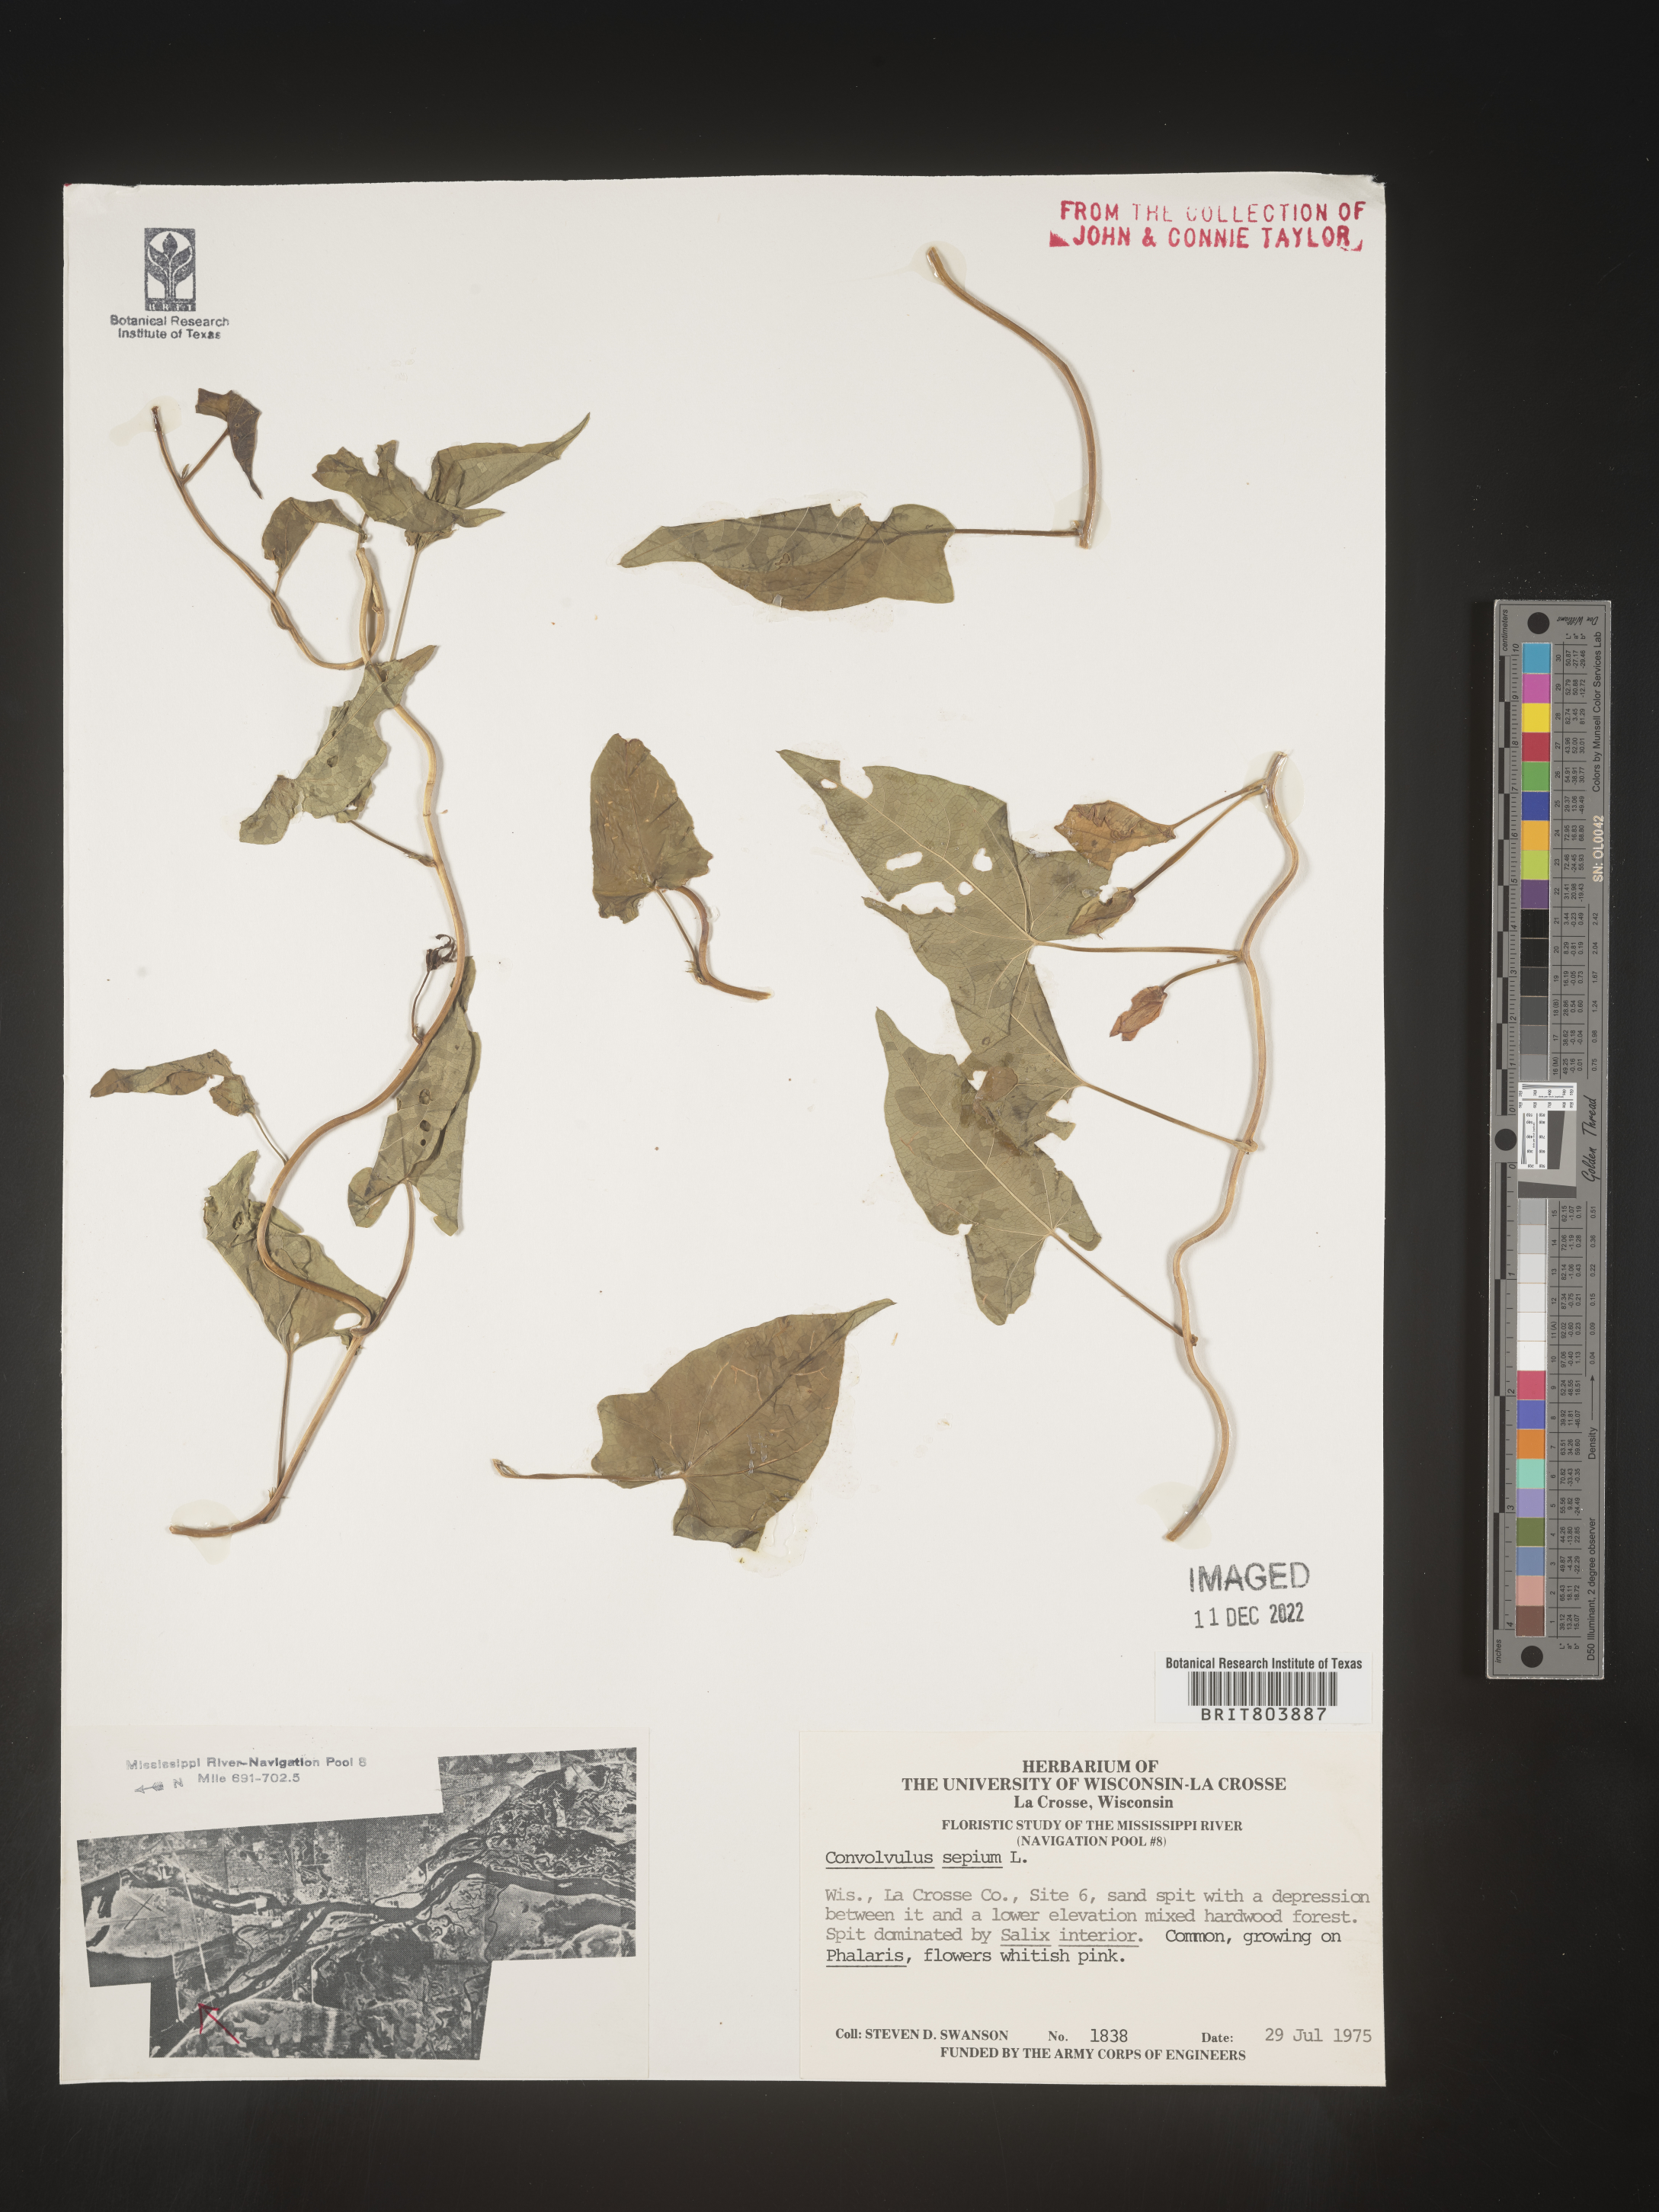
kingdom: Plantae
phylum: Tracheophyta
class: Magnoliopsida
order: Solanales
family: Convolvulaceae
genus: Calystegia
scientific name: Calystegia sepium
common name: Hedge bindweed
